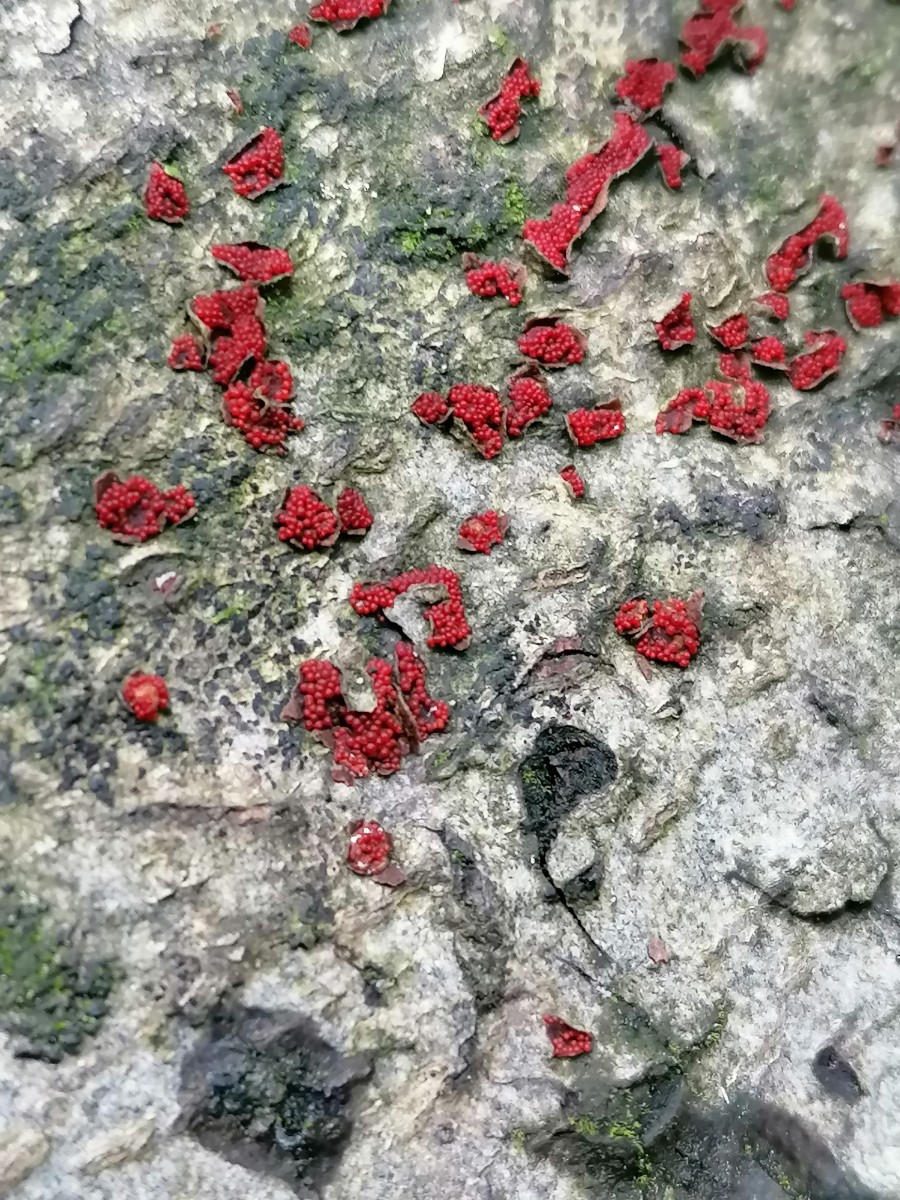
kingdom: Fungi
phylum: Ascomycota
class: Sordariomycetes
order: Hypocreales
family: Nectriaceae
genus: Neonectria
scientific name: Neonectria coccinea
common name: bøgebark-cinnobersvamp
